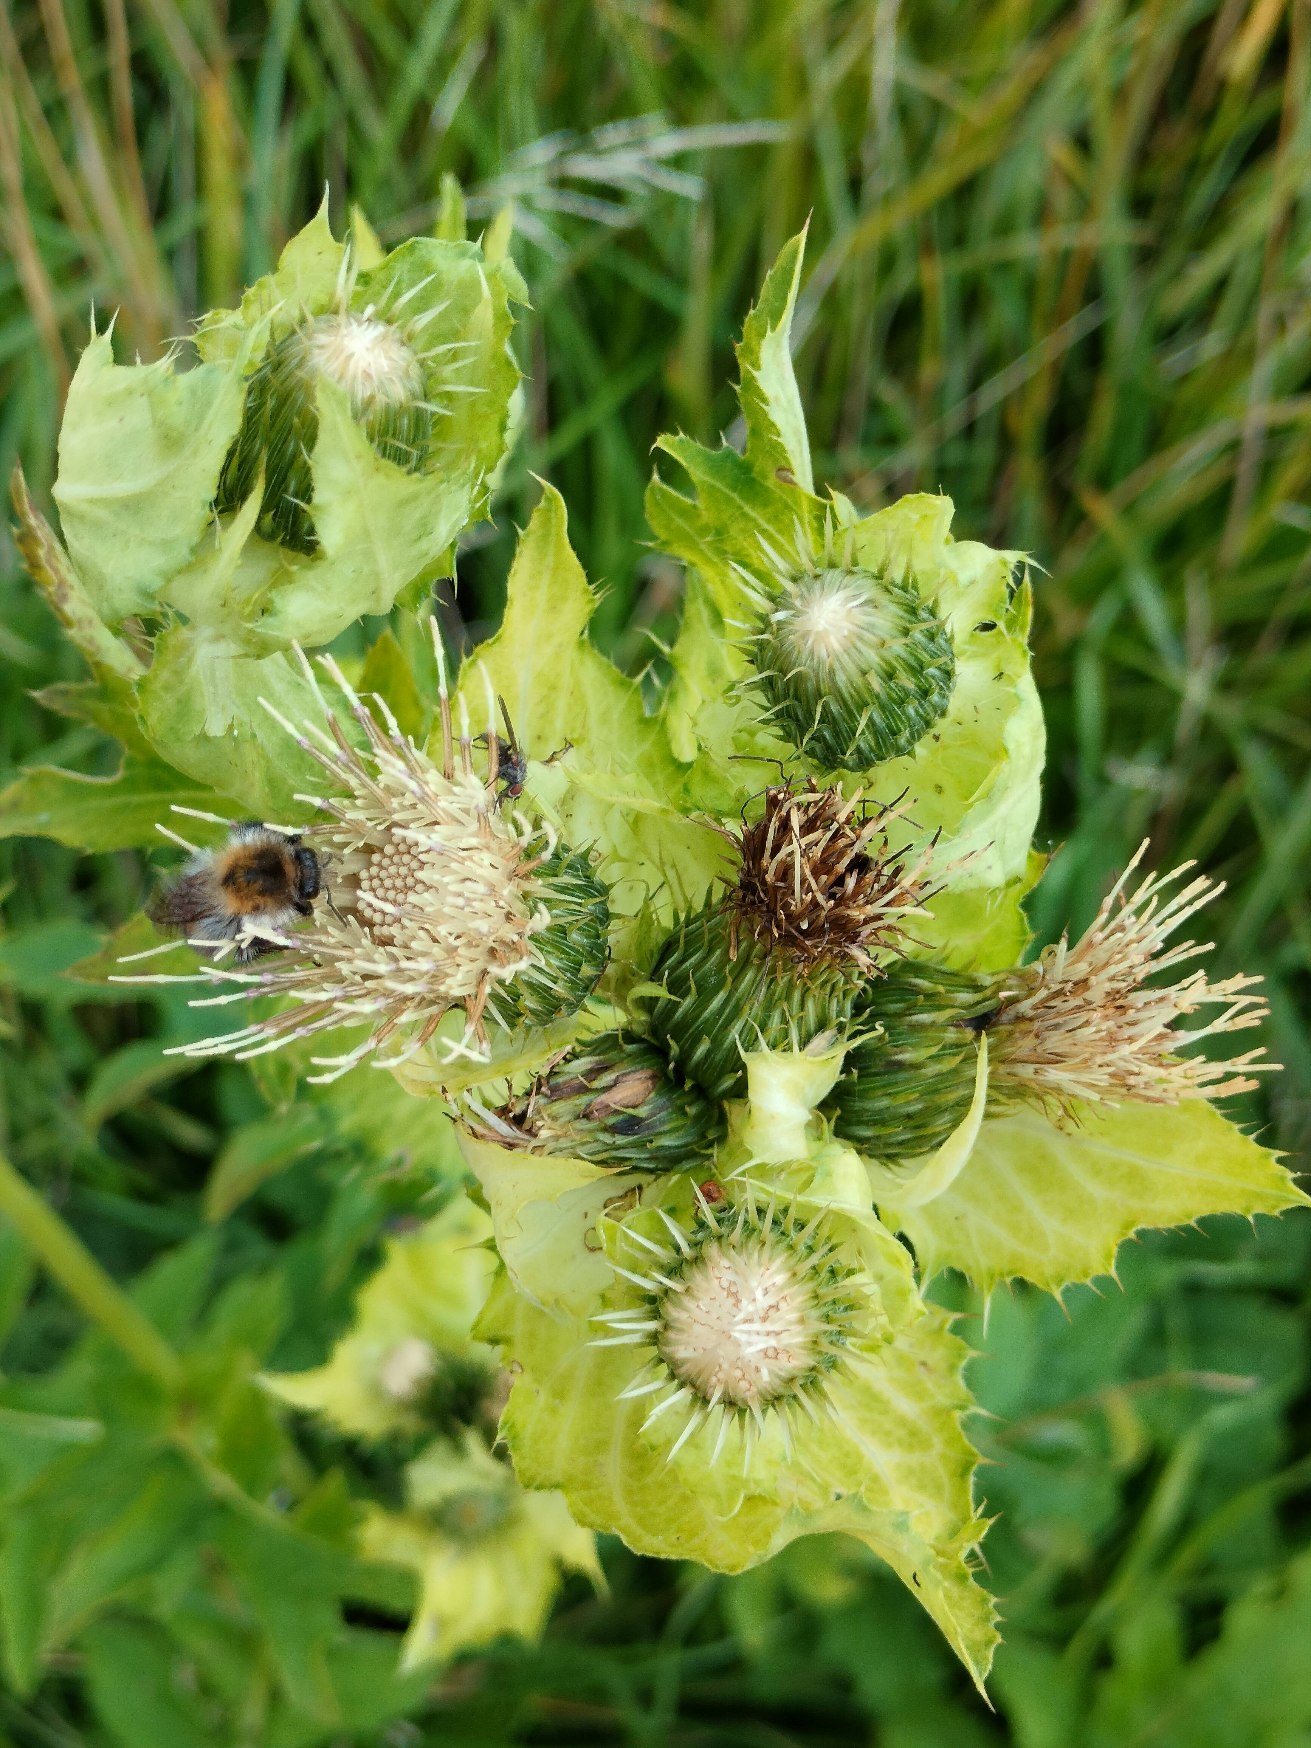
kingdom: Plantae
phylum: Tracheophyta
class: Magnoliopsida
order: Asterales
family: Asteraceae
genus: Cirsium
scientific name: Cirsium oleraceum
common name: Kål-tidsel
